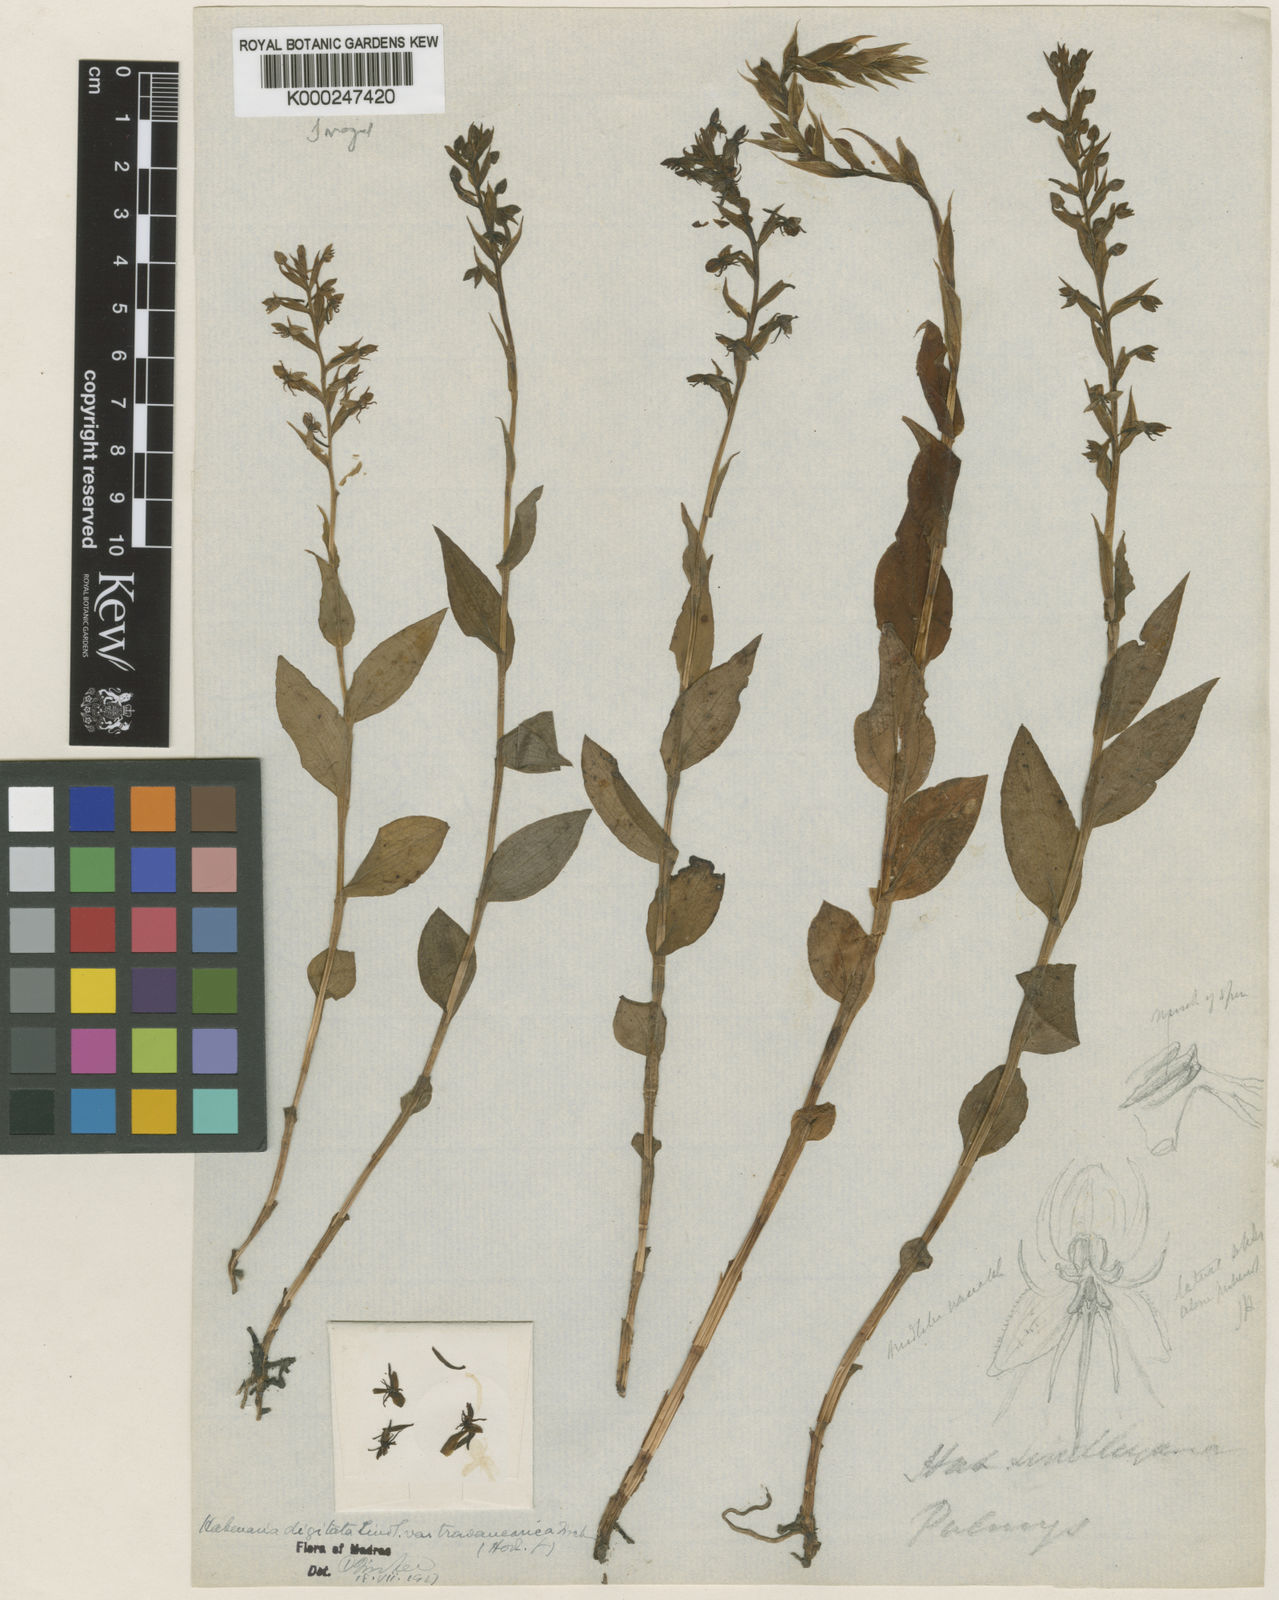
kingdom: Plantae
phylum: Tracheophyta
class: Liliopsida
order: Asparagales
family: Orchidaceae
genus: Habenaria
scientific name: Habenaria digitata
